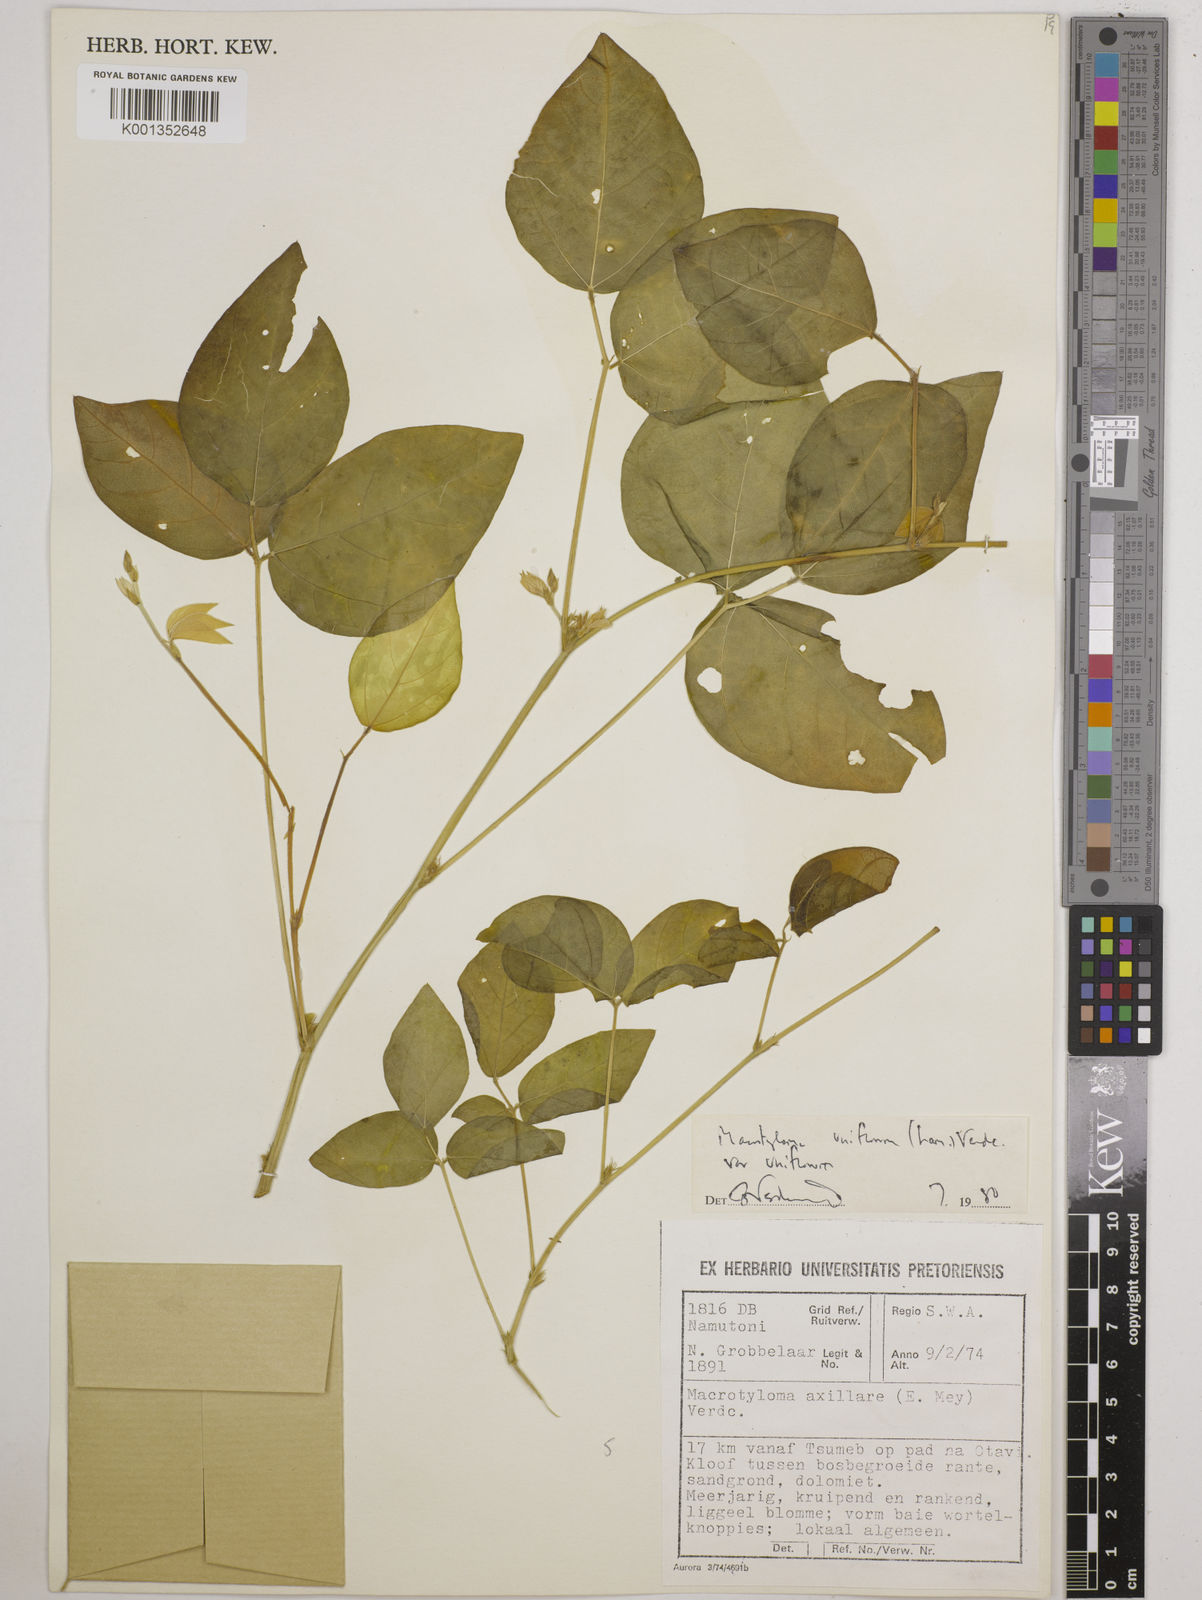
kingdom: Plantae
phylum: Tracheophyta
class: Magnoliopsida
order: Fabales
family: Fabaceae
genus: Macrotyloma
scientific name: Macrotyloma uniflorum
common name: Horse gram
